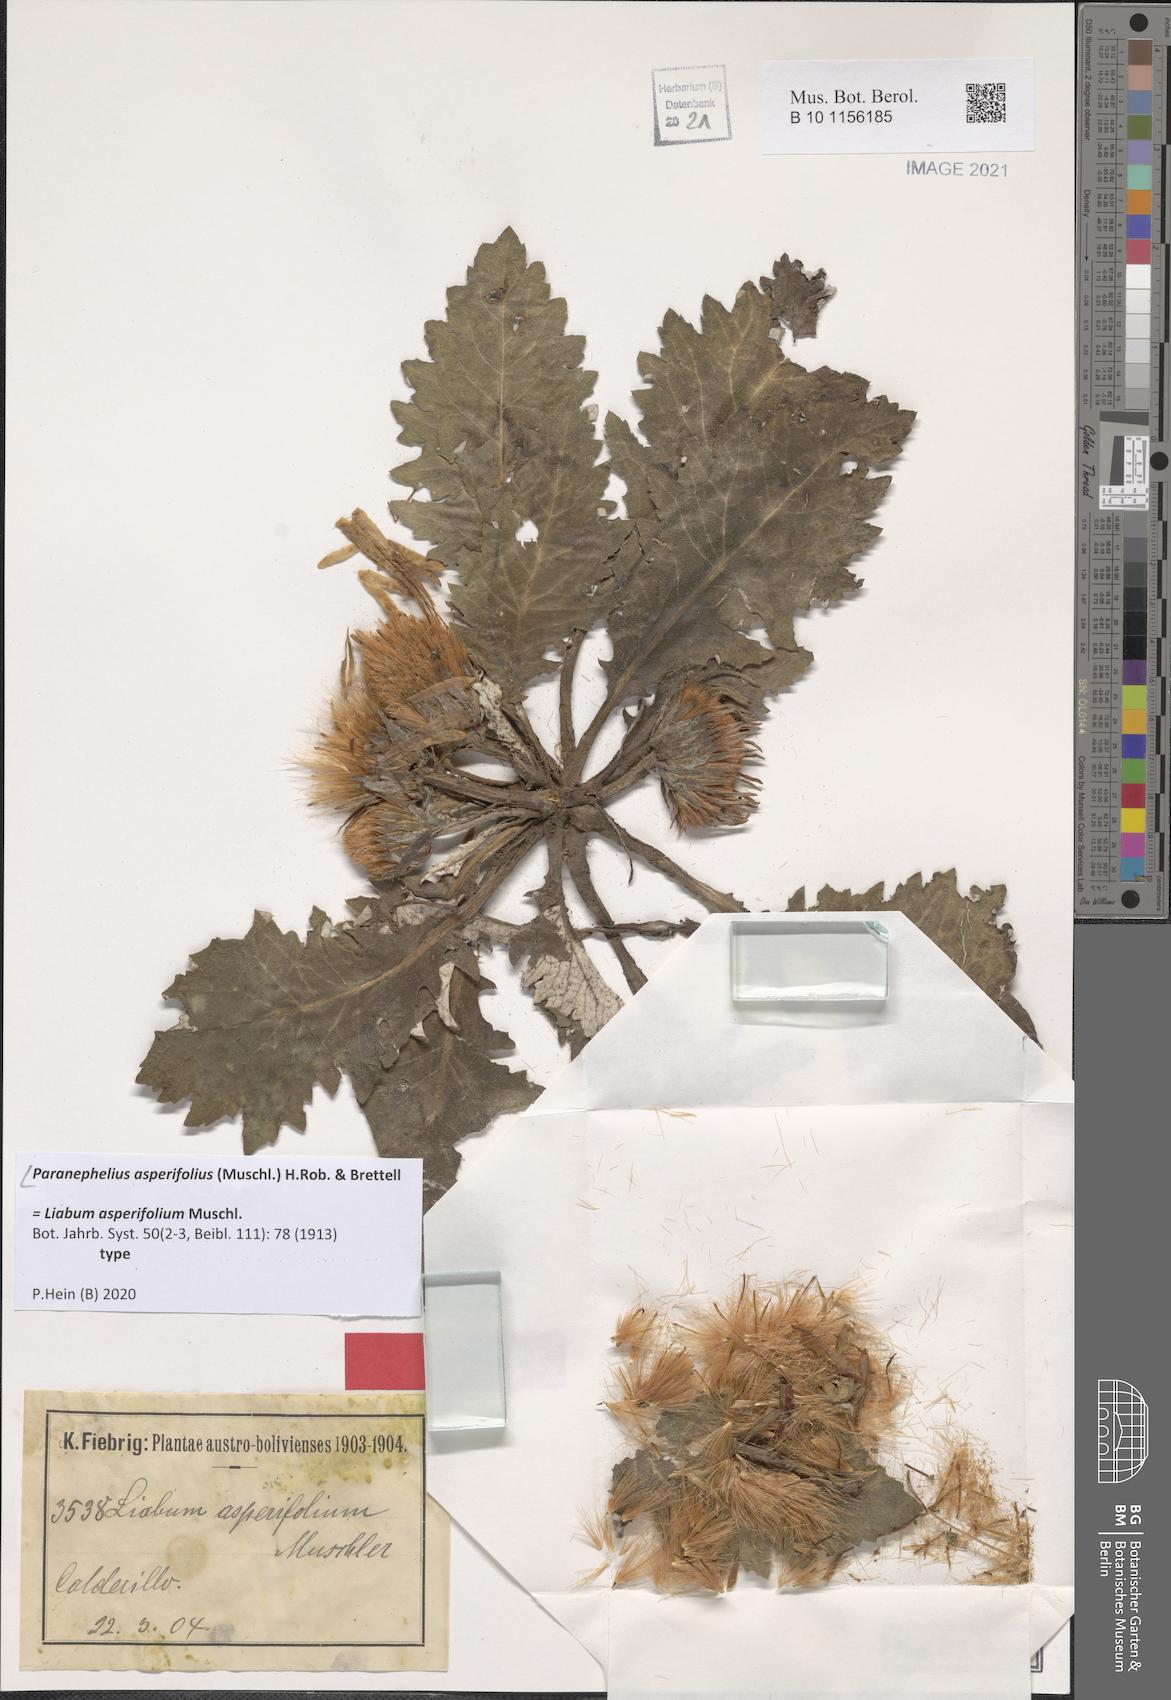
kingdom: Plantae
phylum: Tracheophyta
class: Magnoliopsida
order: Asterales
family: Asteraceae
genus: Paranephelius
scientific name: Paranephelius asperifolius
